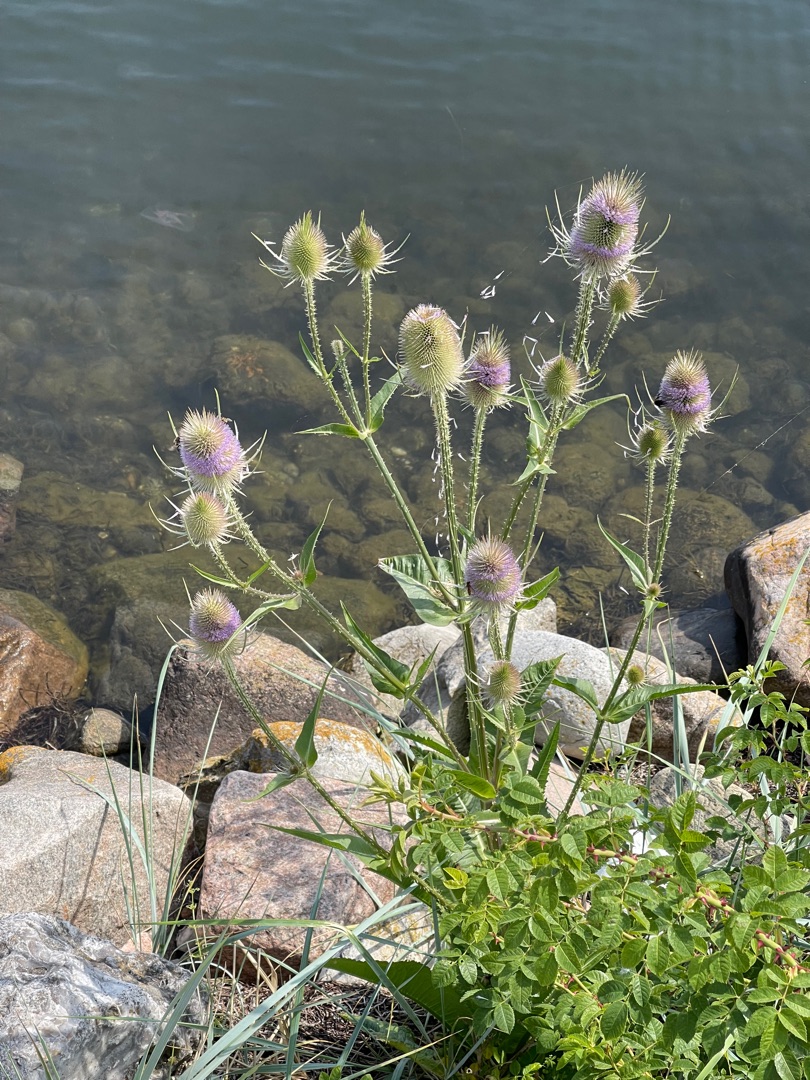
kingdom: Plantae
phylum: Tracheophyta
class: Magnoliopsida
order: Dipsacales
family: Caprifoliaceae
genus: Dipsacus
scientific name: Dipsacus fullonum
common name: Gærde-kartebolle
